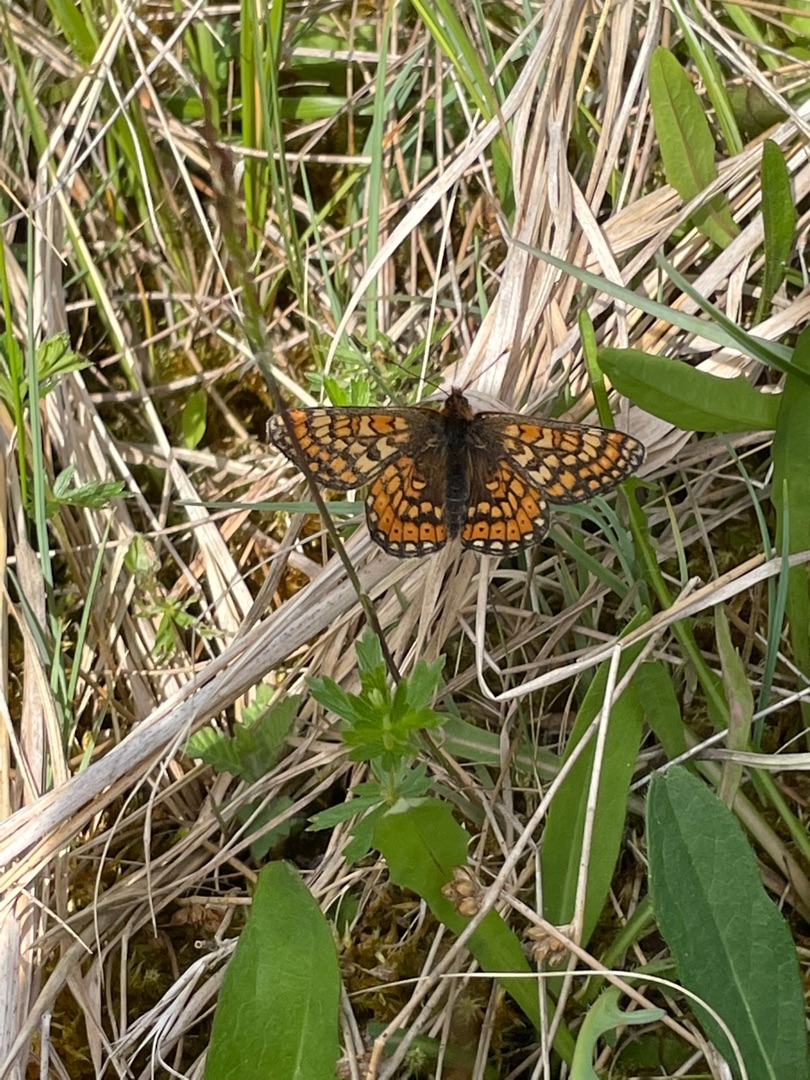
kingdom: Animalia
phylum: Arthropoda
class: Insecta
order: Lepidoptera
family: Nymphalidae
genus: Euphydryas
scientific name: Euphydryas aurinia
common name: Hedepletvinge
